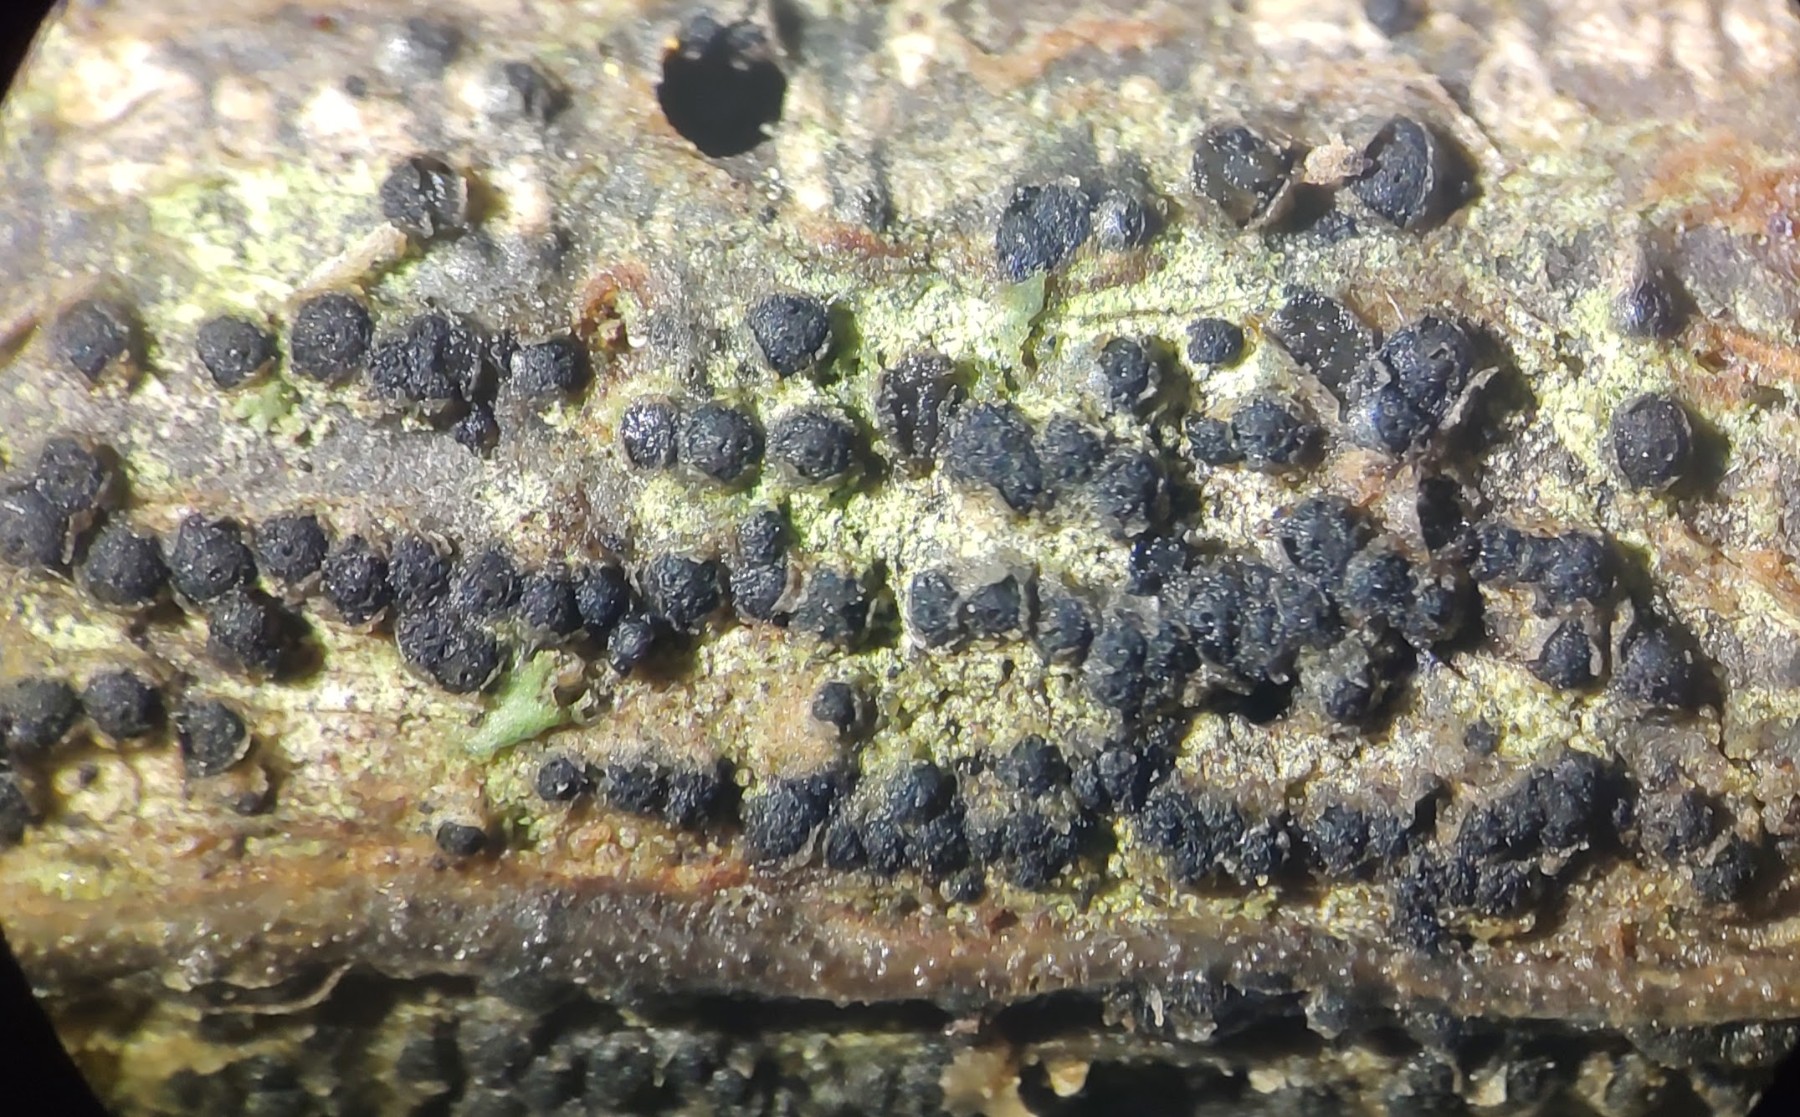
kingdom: Fungi
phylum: Ascomycota
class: Dothideomycetes
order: Pleosporales
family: Cucurbitariaceae
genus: Cucurbitaria
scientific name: Cucurbitaria spartii
